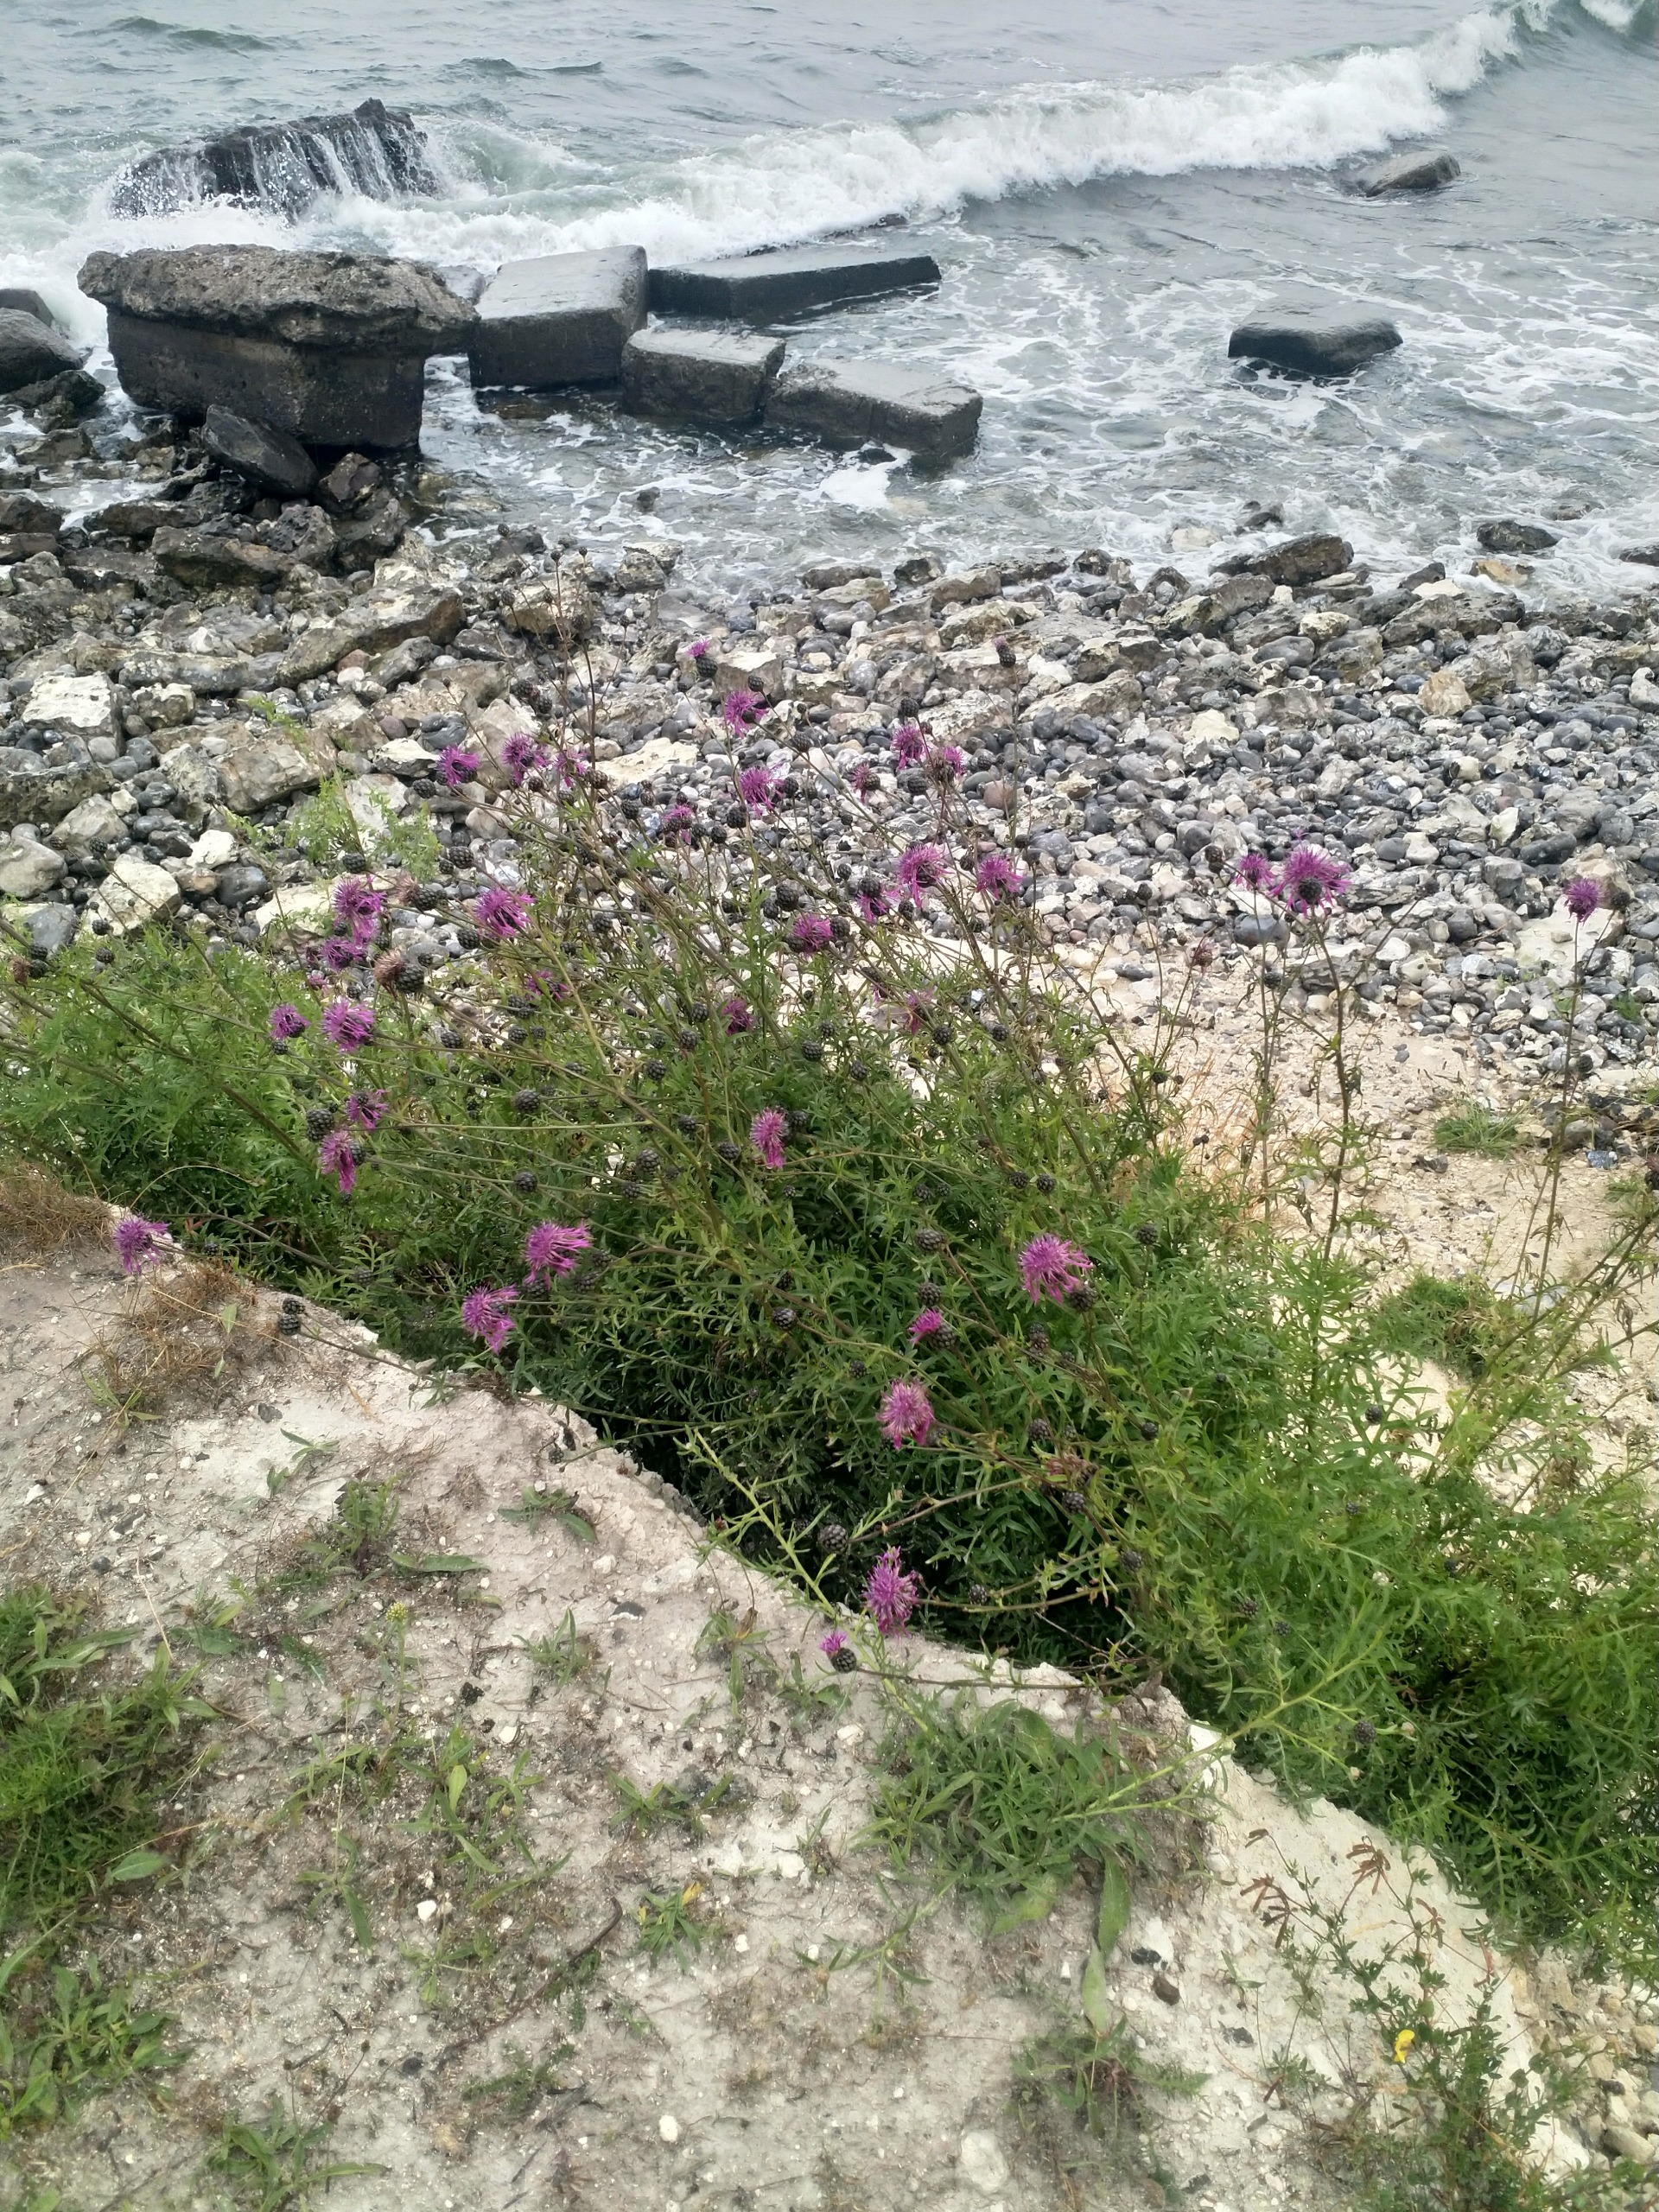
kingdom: Plantae
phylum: Tracheophyta
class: Magnoliopsida
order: Asterales
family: Asteraceae
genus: Centaurea
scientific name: Centaurea scabiosa
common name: Stor knopurt
